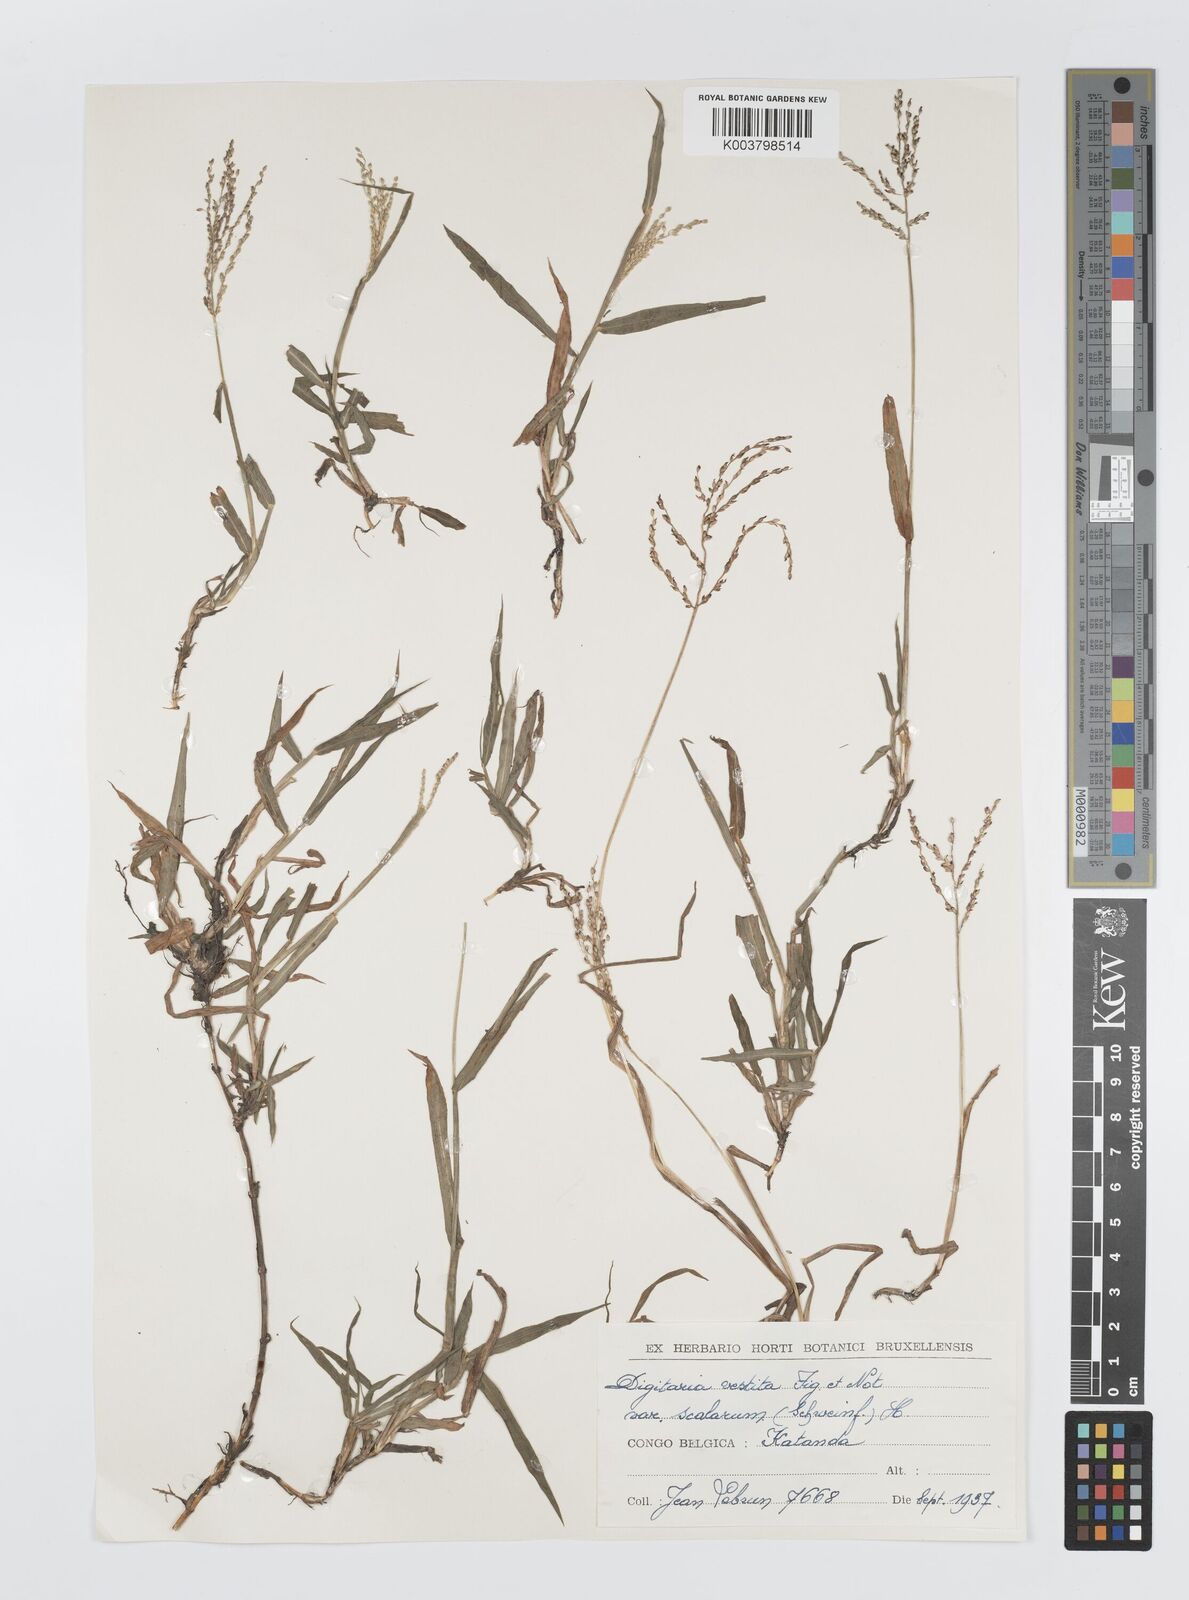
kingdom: Plantae
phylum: Tracheophyta
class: Liliopsida
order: Poales
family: Poaceae
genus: Digitaria
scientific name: Digitaria abyssinica
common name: African couchgrass
